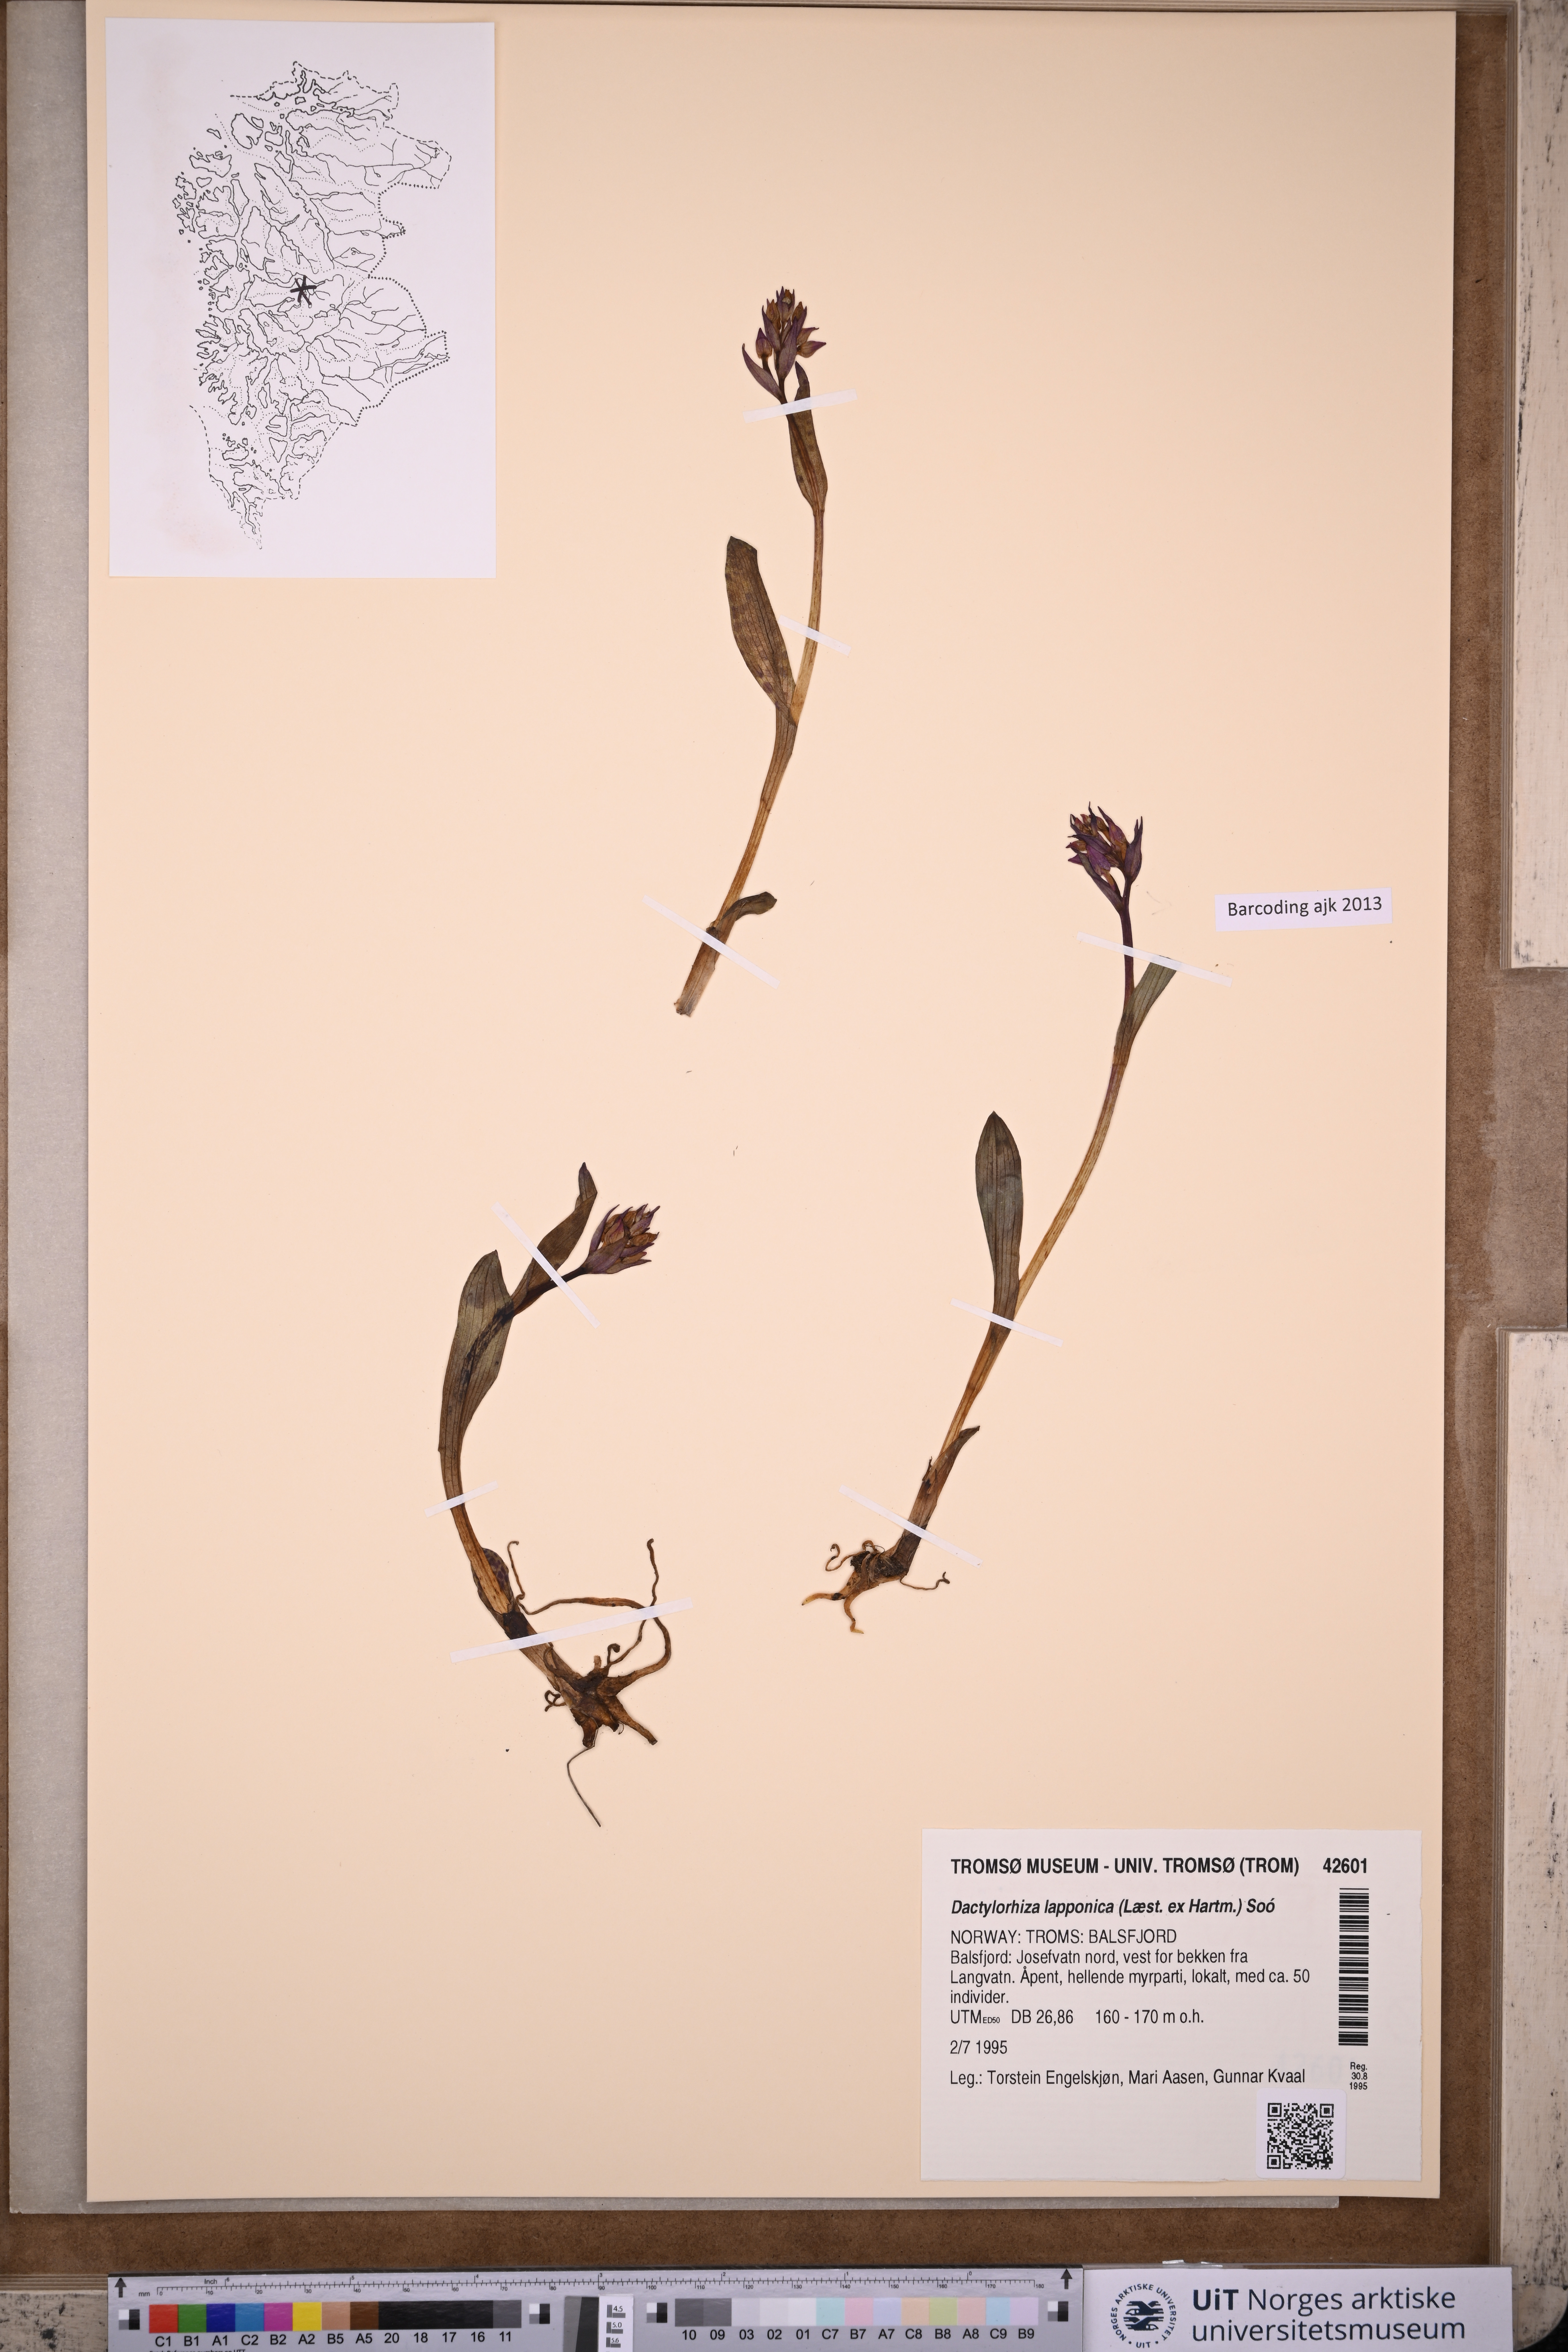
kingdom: Plantae
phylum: Tracheophyta
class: Liliopsida
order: Asparagales
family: Orchidaceae
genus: Dactylorhiza
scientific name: Dactylorhiza majalis
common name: Marsh orchid
